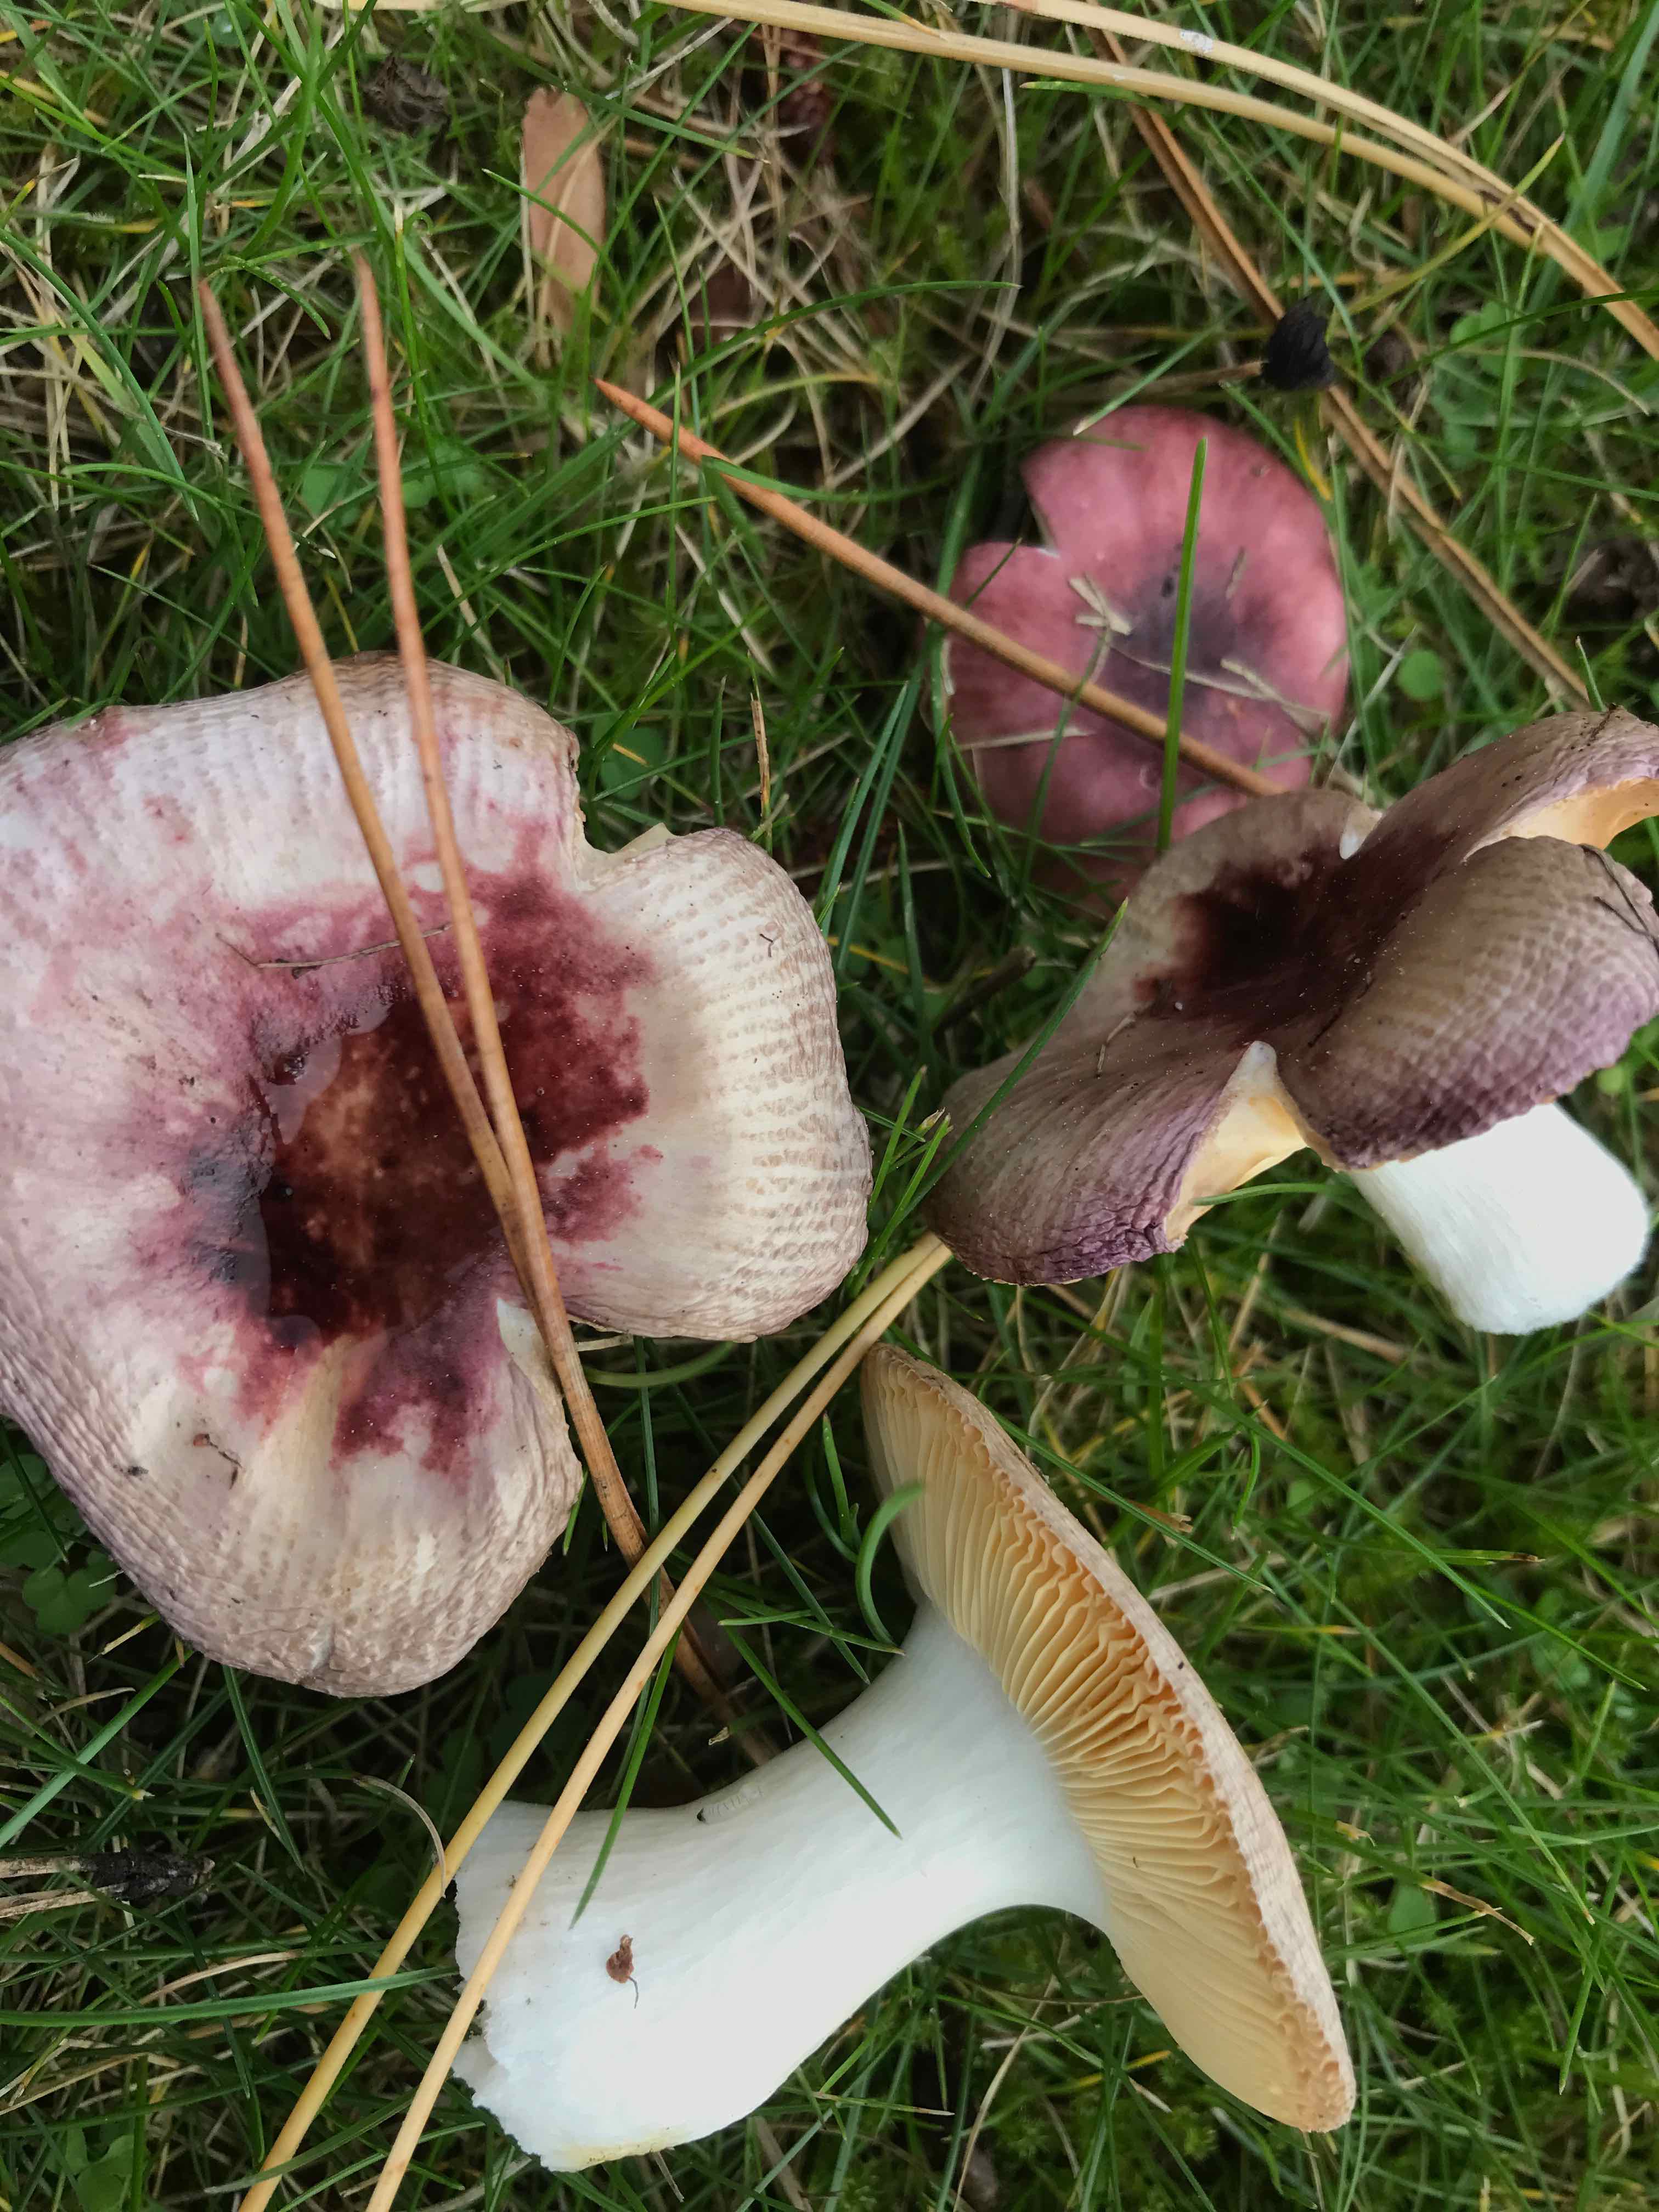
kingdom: Fungi
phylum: Basidiomycota
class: Agaricomycetes
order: Russulales
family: Russulaceae
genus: Russula
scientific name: Russula cessans
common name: fyrre-skørhat
